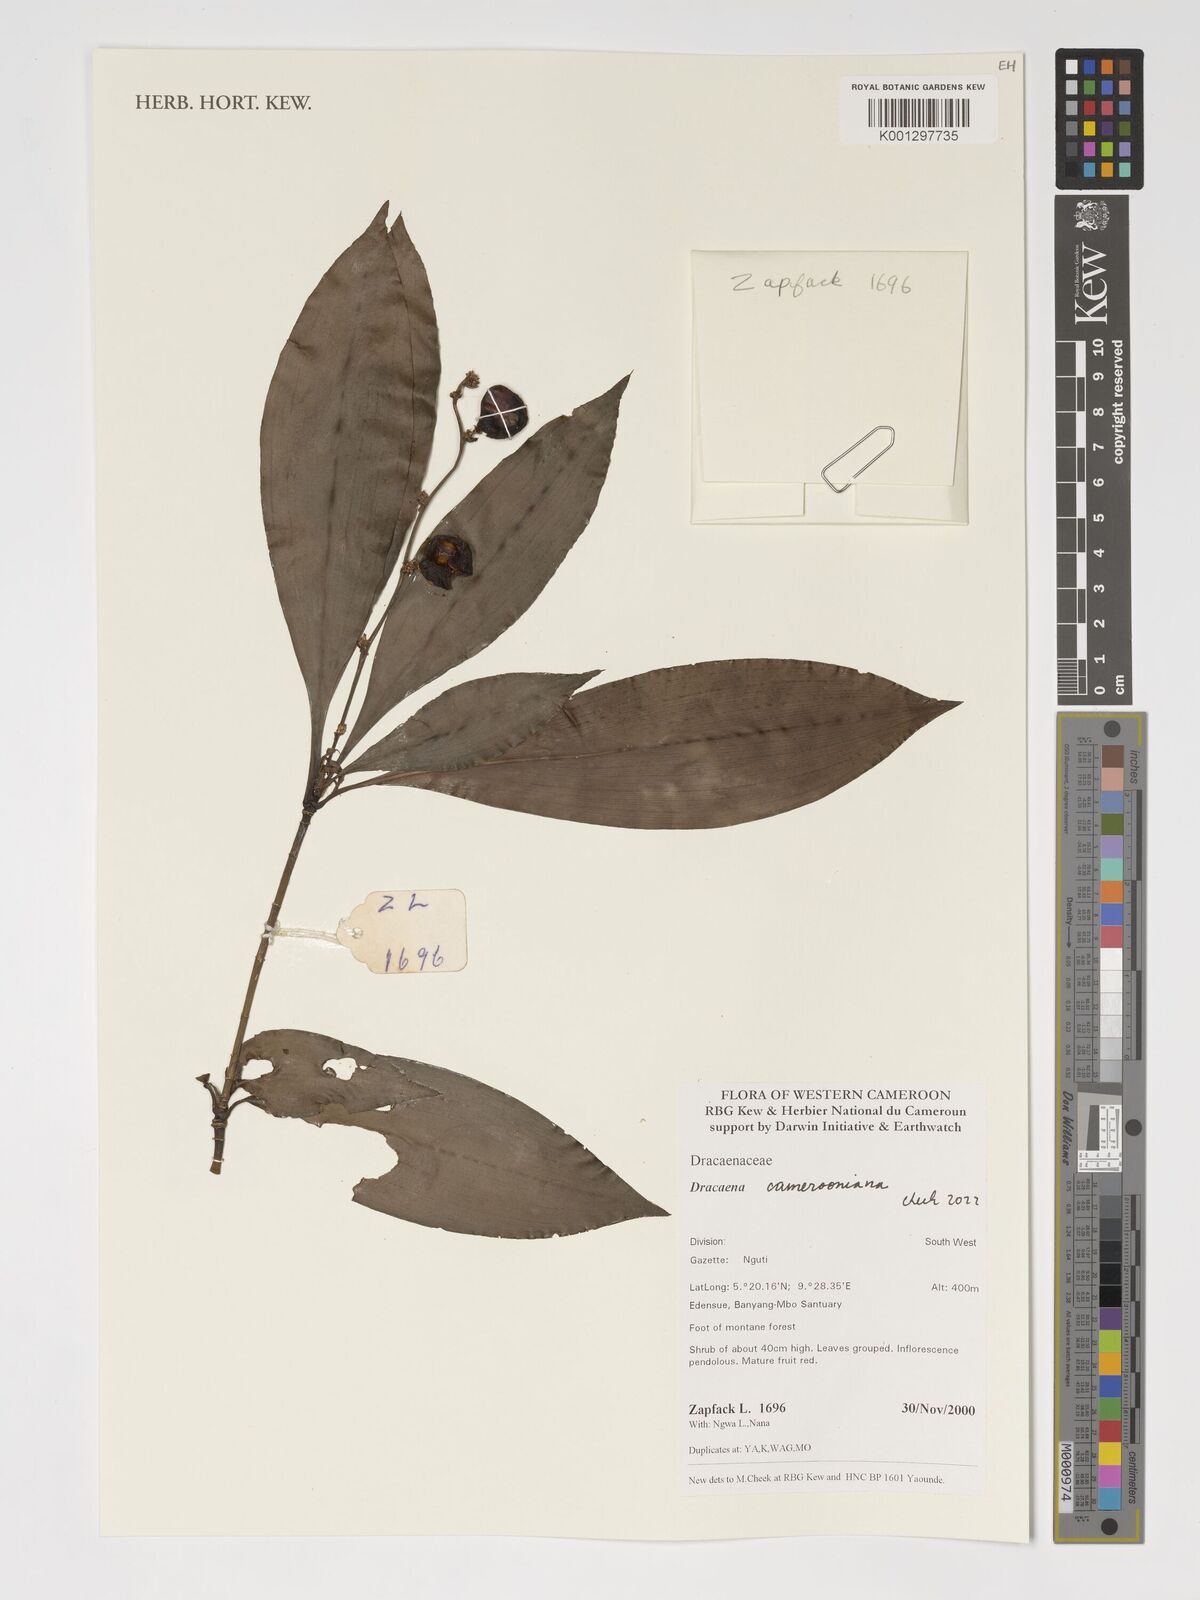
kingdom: Plantae
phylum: Tracheophyta
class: Liliopsida
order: Asparagales
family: Asparagaceae
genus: Dracaena
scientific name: Dracaena camerooniana
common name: Dragon tree
